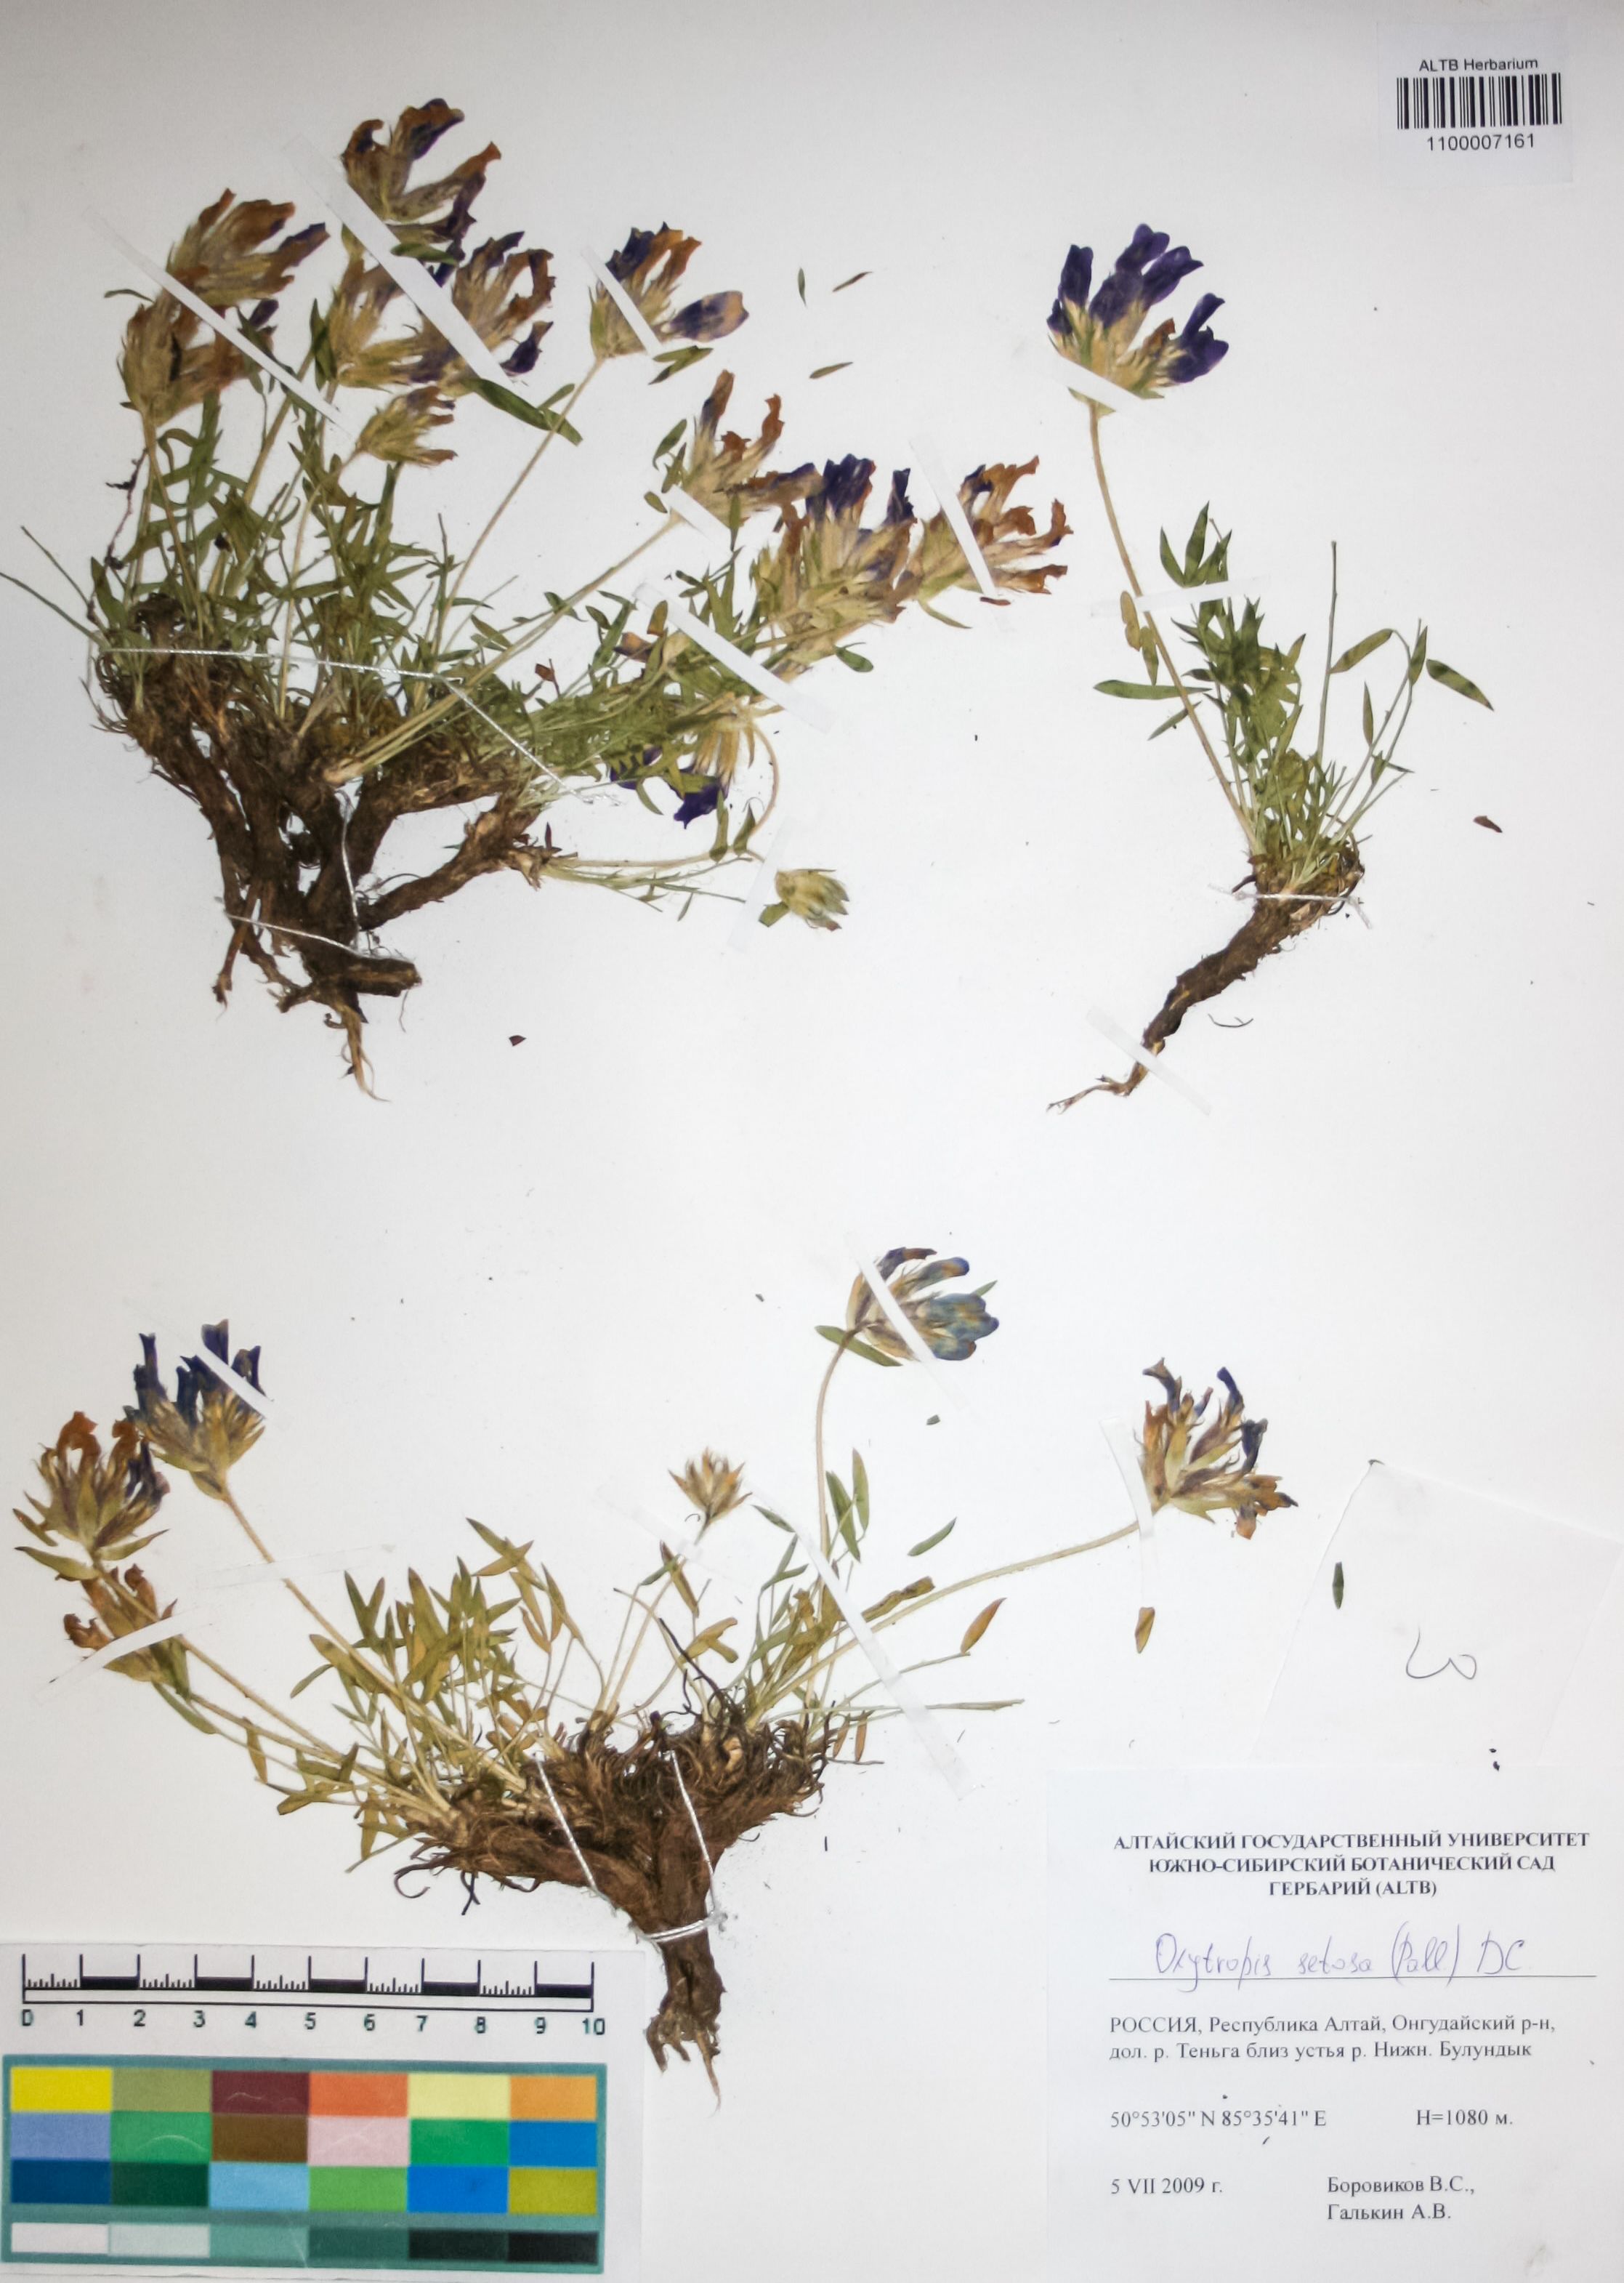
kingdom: Plantae
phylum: Tracheophyta
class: Magnoliopsida
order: Fabales
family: Fabaceae
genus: Oxytropis
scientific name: Oxytropis setosa
